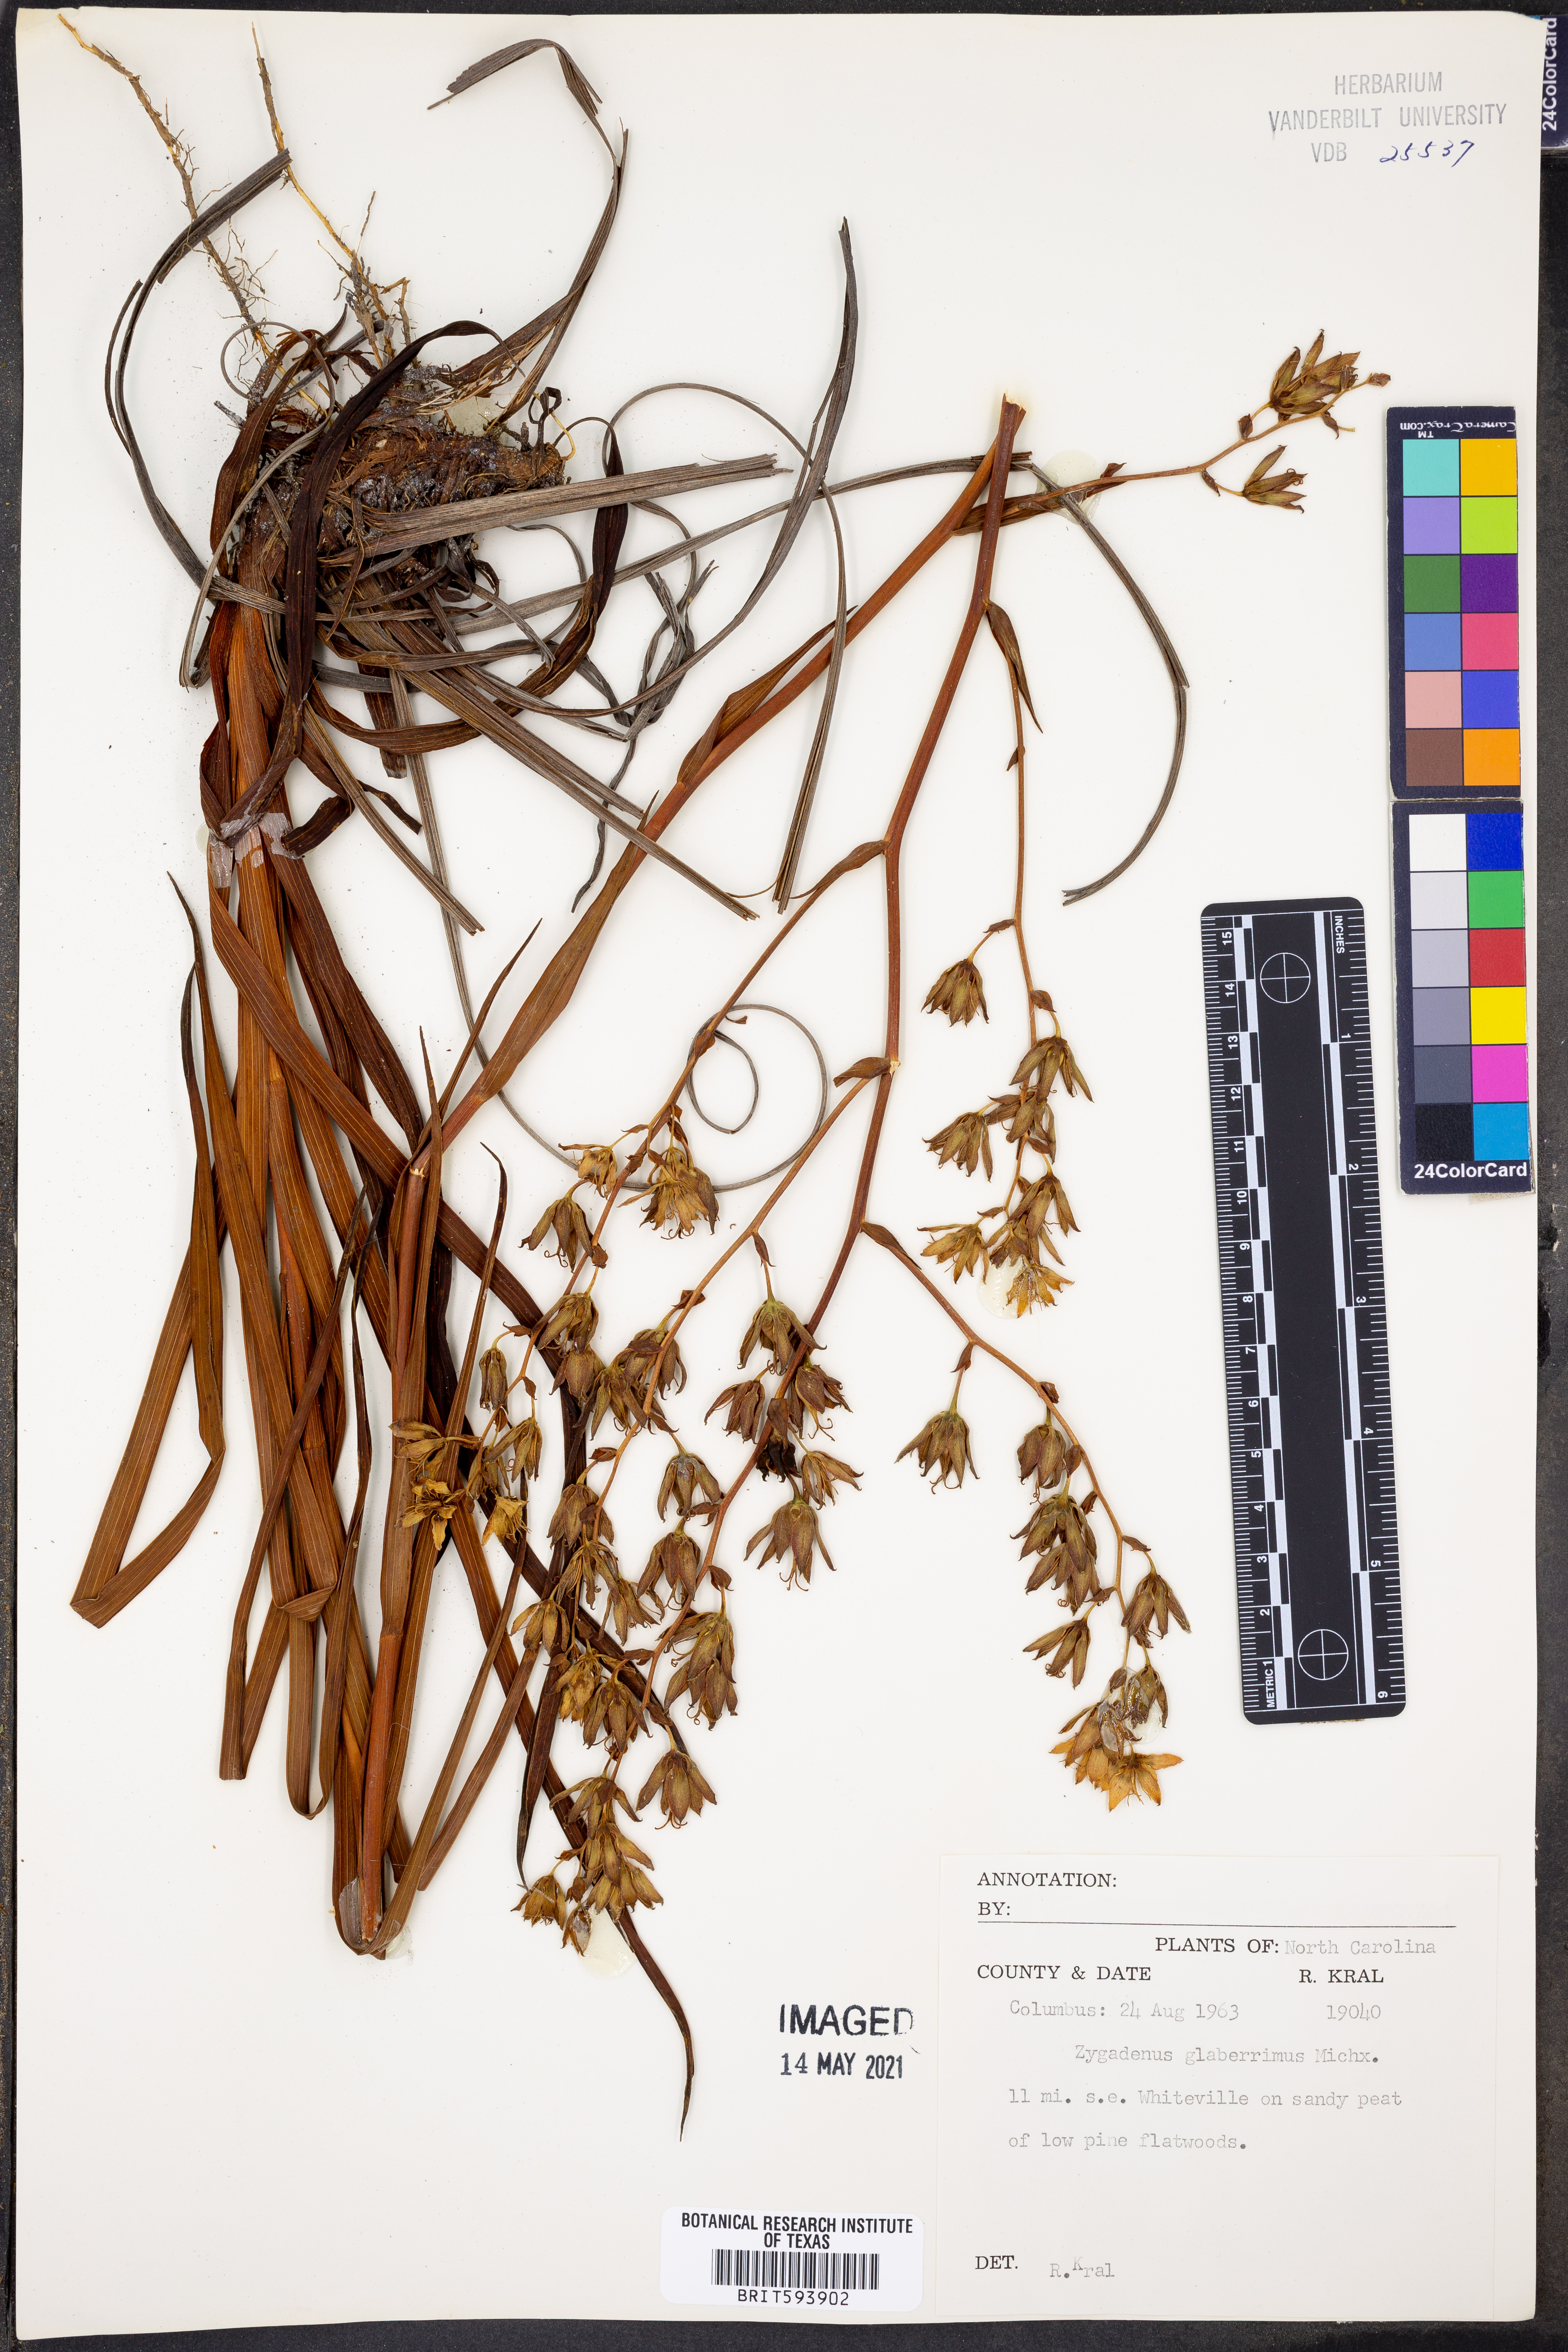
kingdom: Plantae
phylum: Tracheophyta
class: Liliopsida
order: Liliales
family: Melanthiaceae
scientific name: Melanthiaceae
